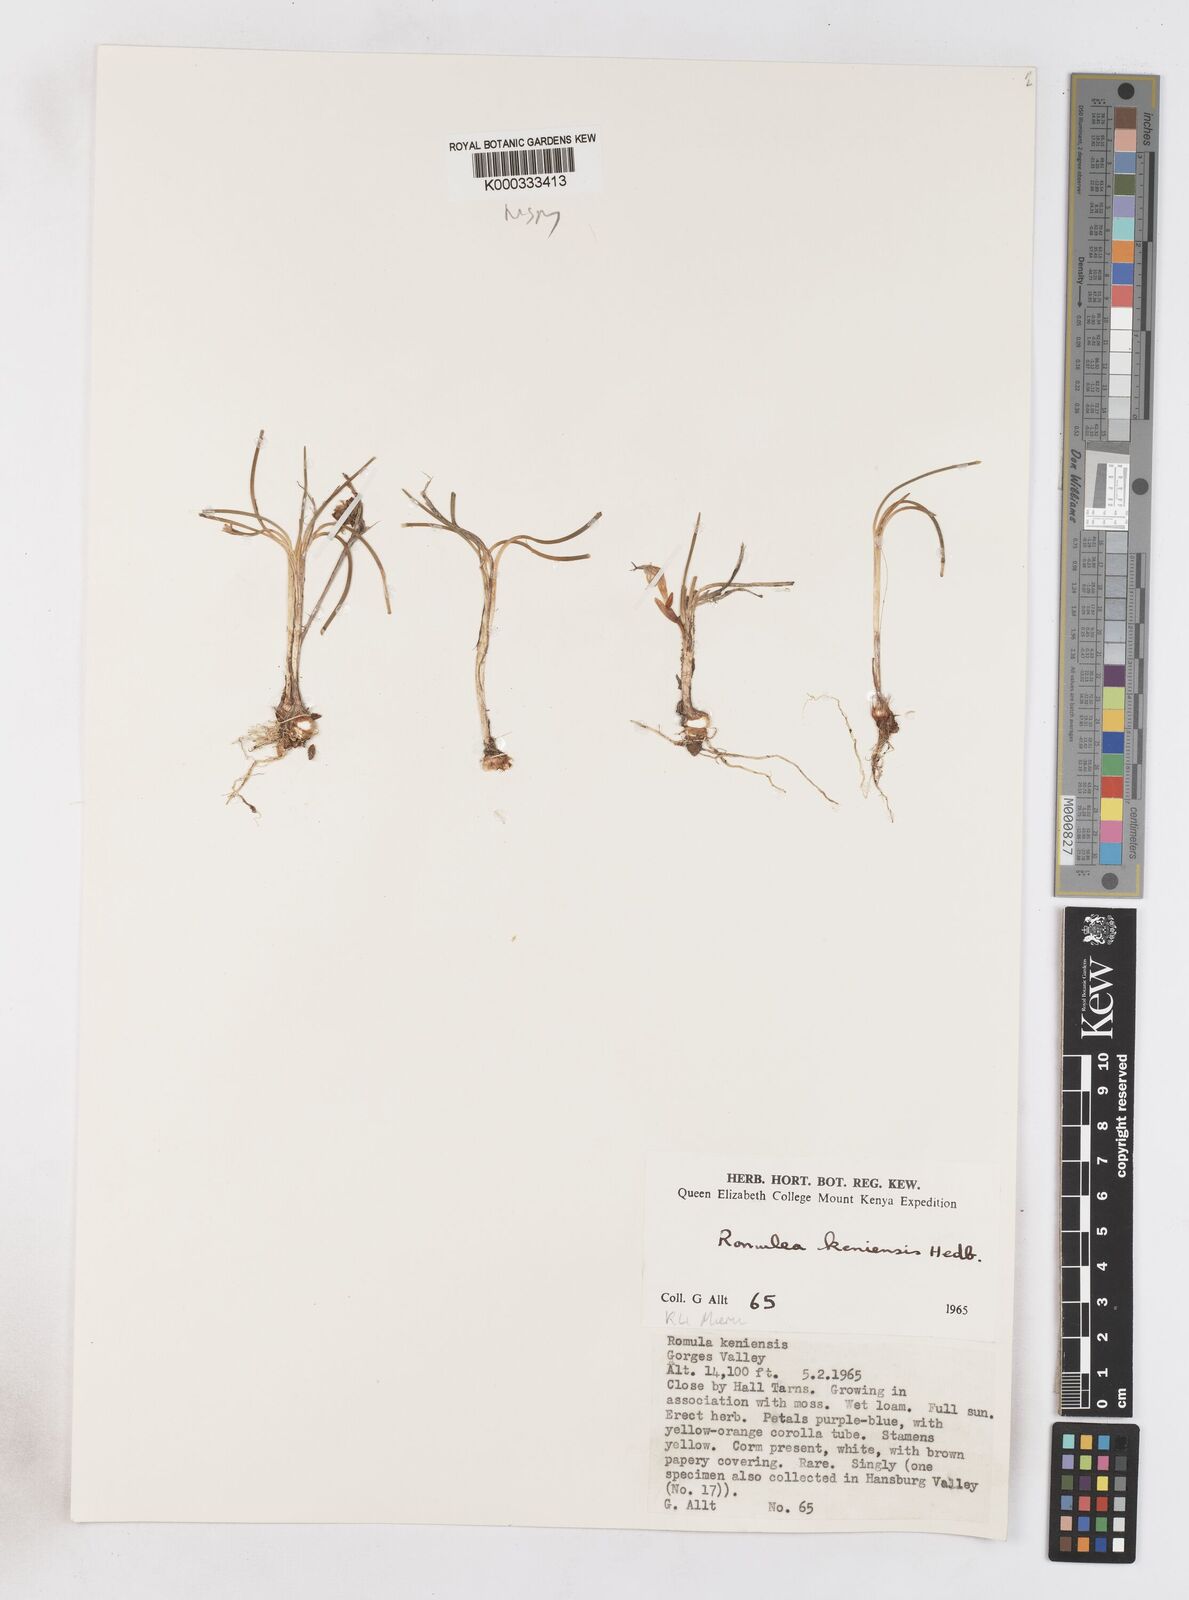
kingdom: Plantae
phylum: Tracheophyta
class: Liliopsida
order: Asparagales
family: Iridaceae
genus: Romulea
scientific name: Romulea congoensis
